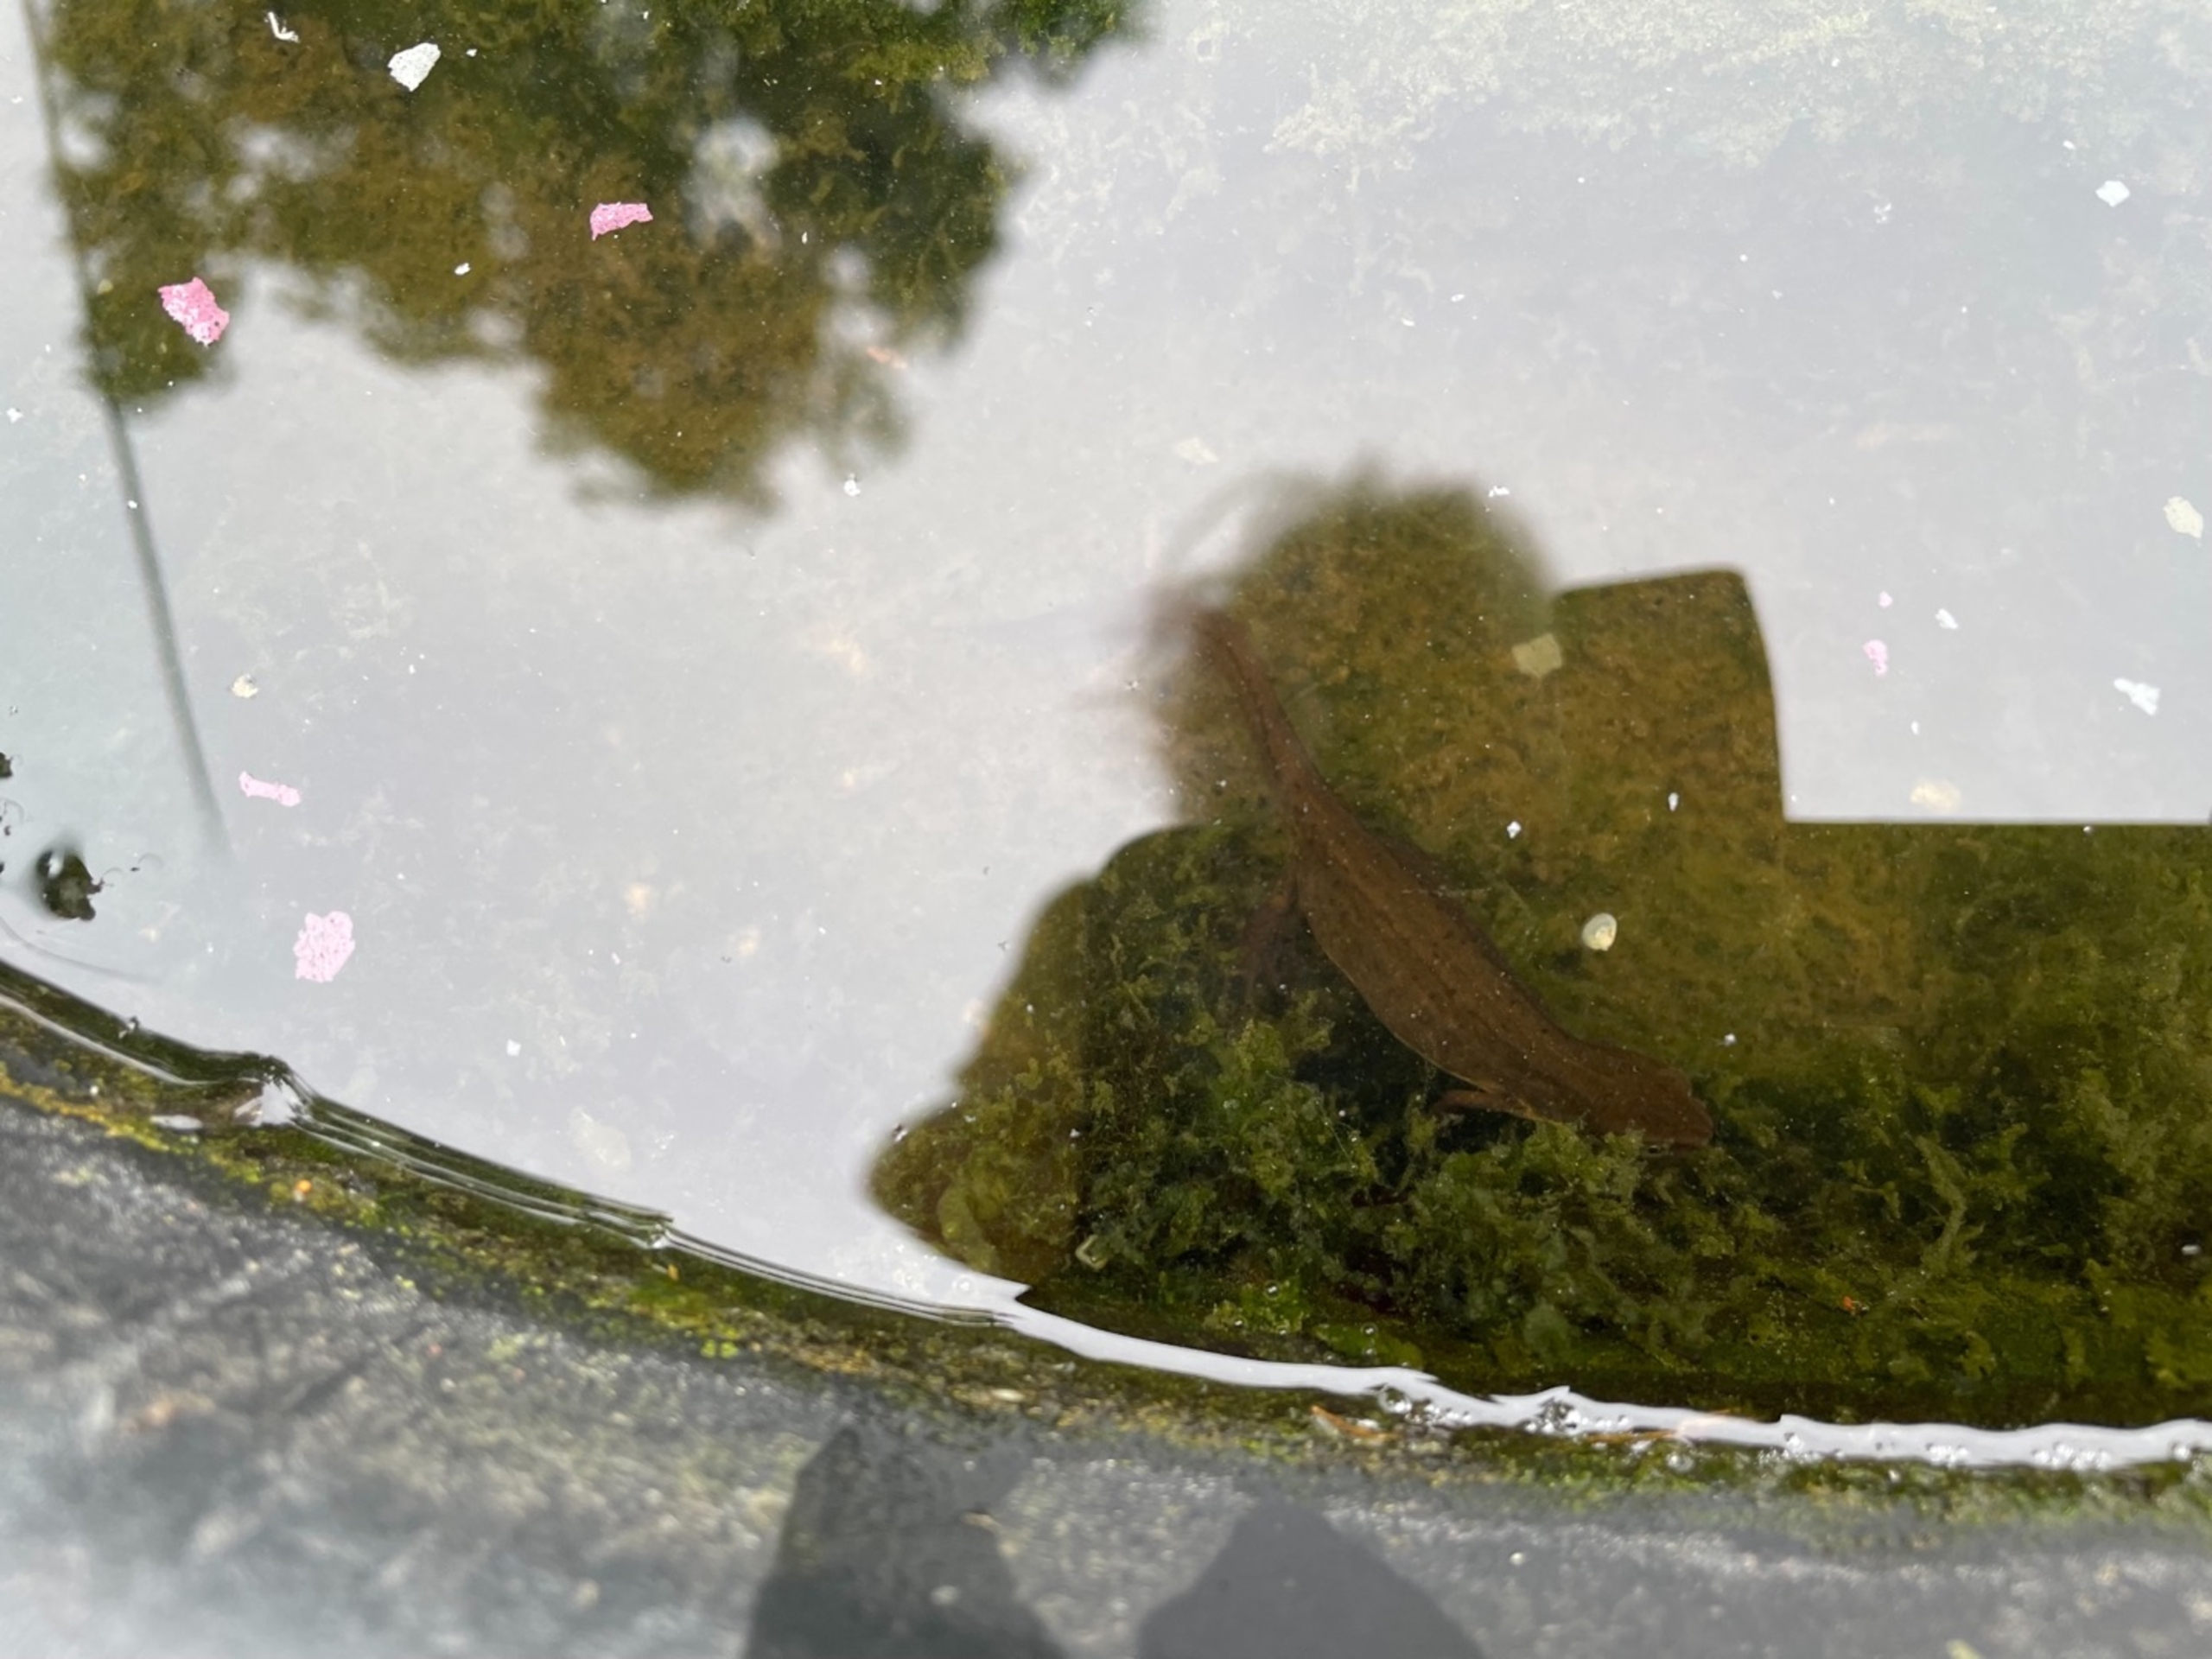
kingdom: Animalia
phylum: Chordata
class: Amphibia
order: Caudata
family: Salamandridae
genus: Lissotriton
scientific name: Lissotriton vulgaris
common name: Lille vandsalamander
